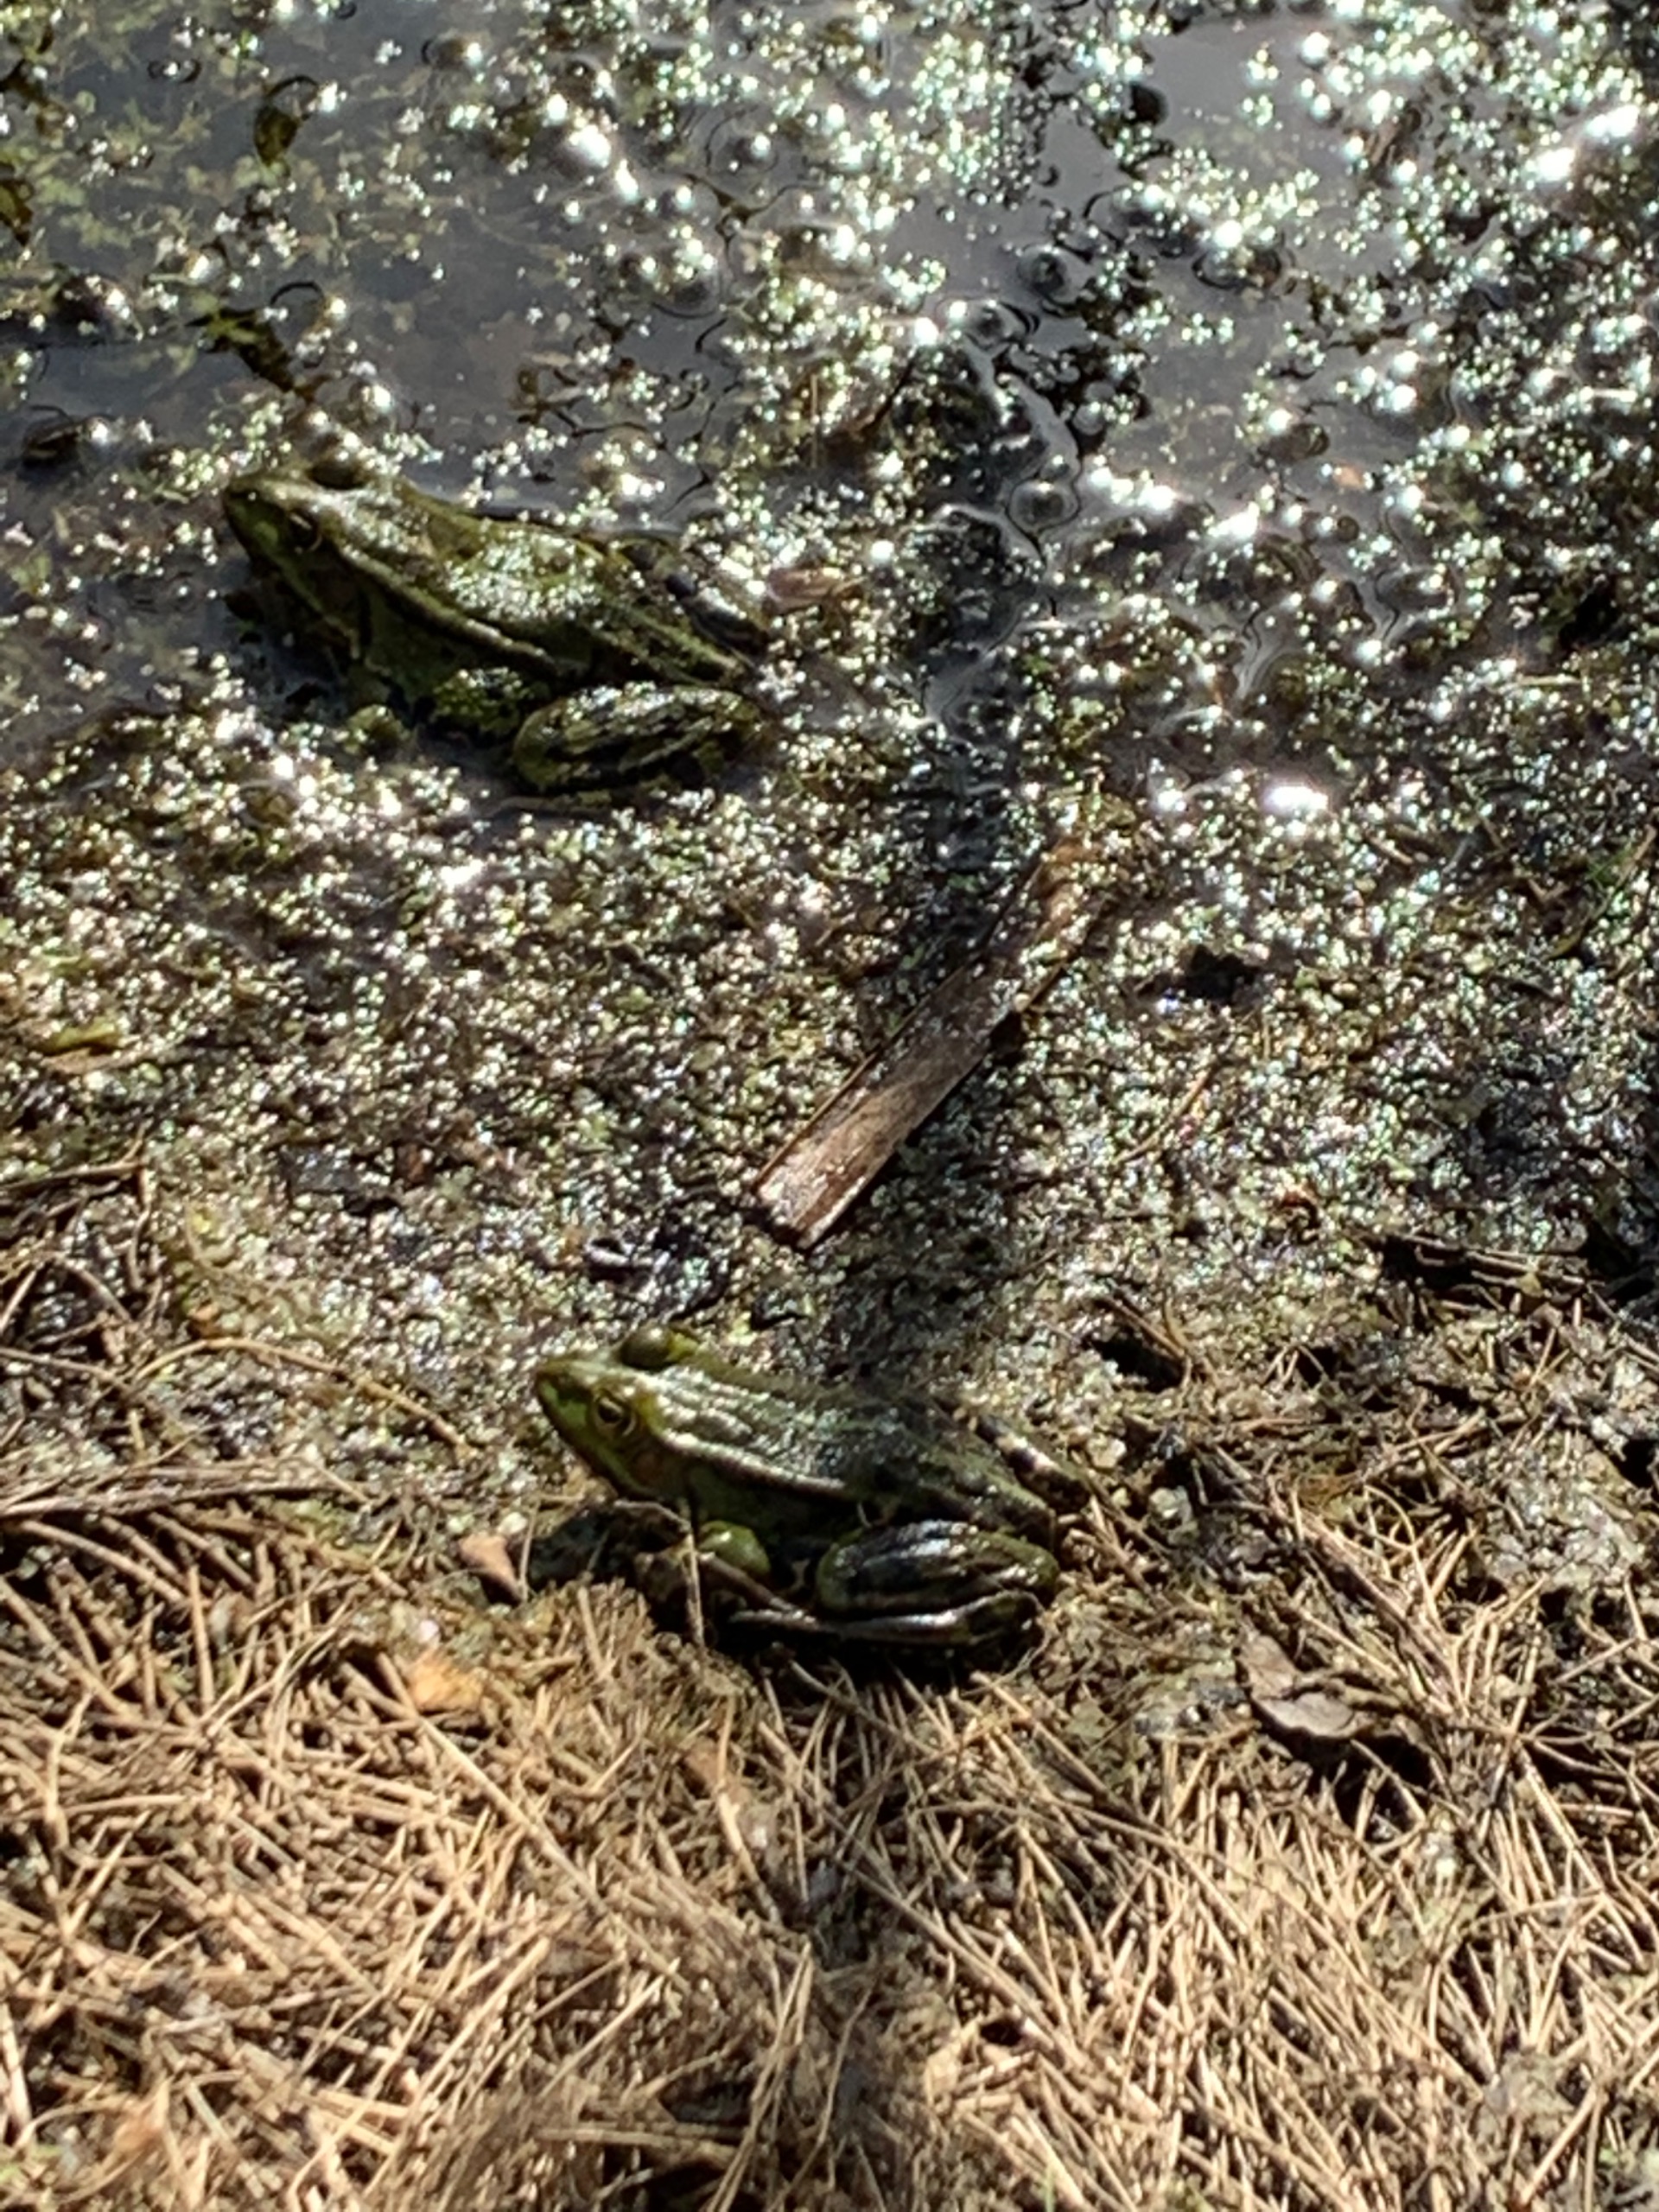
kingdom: Animalia
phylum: Chordata
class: Amphibia
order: Anura
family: Ranidae
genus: Pelophylax
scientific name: Pelophylax lessonae
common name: Grøn frø
